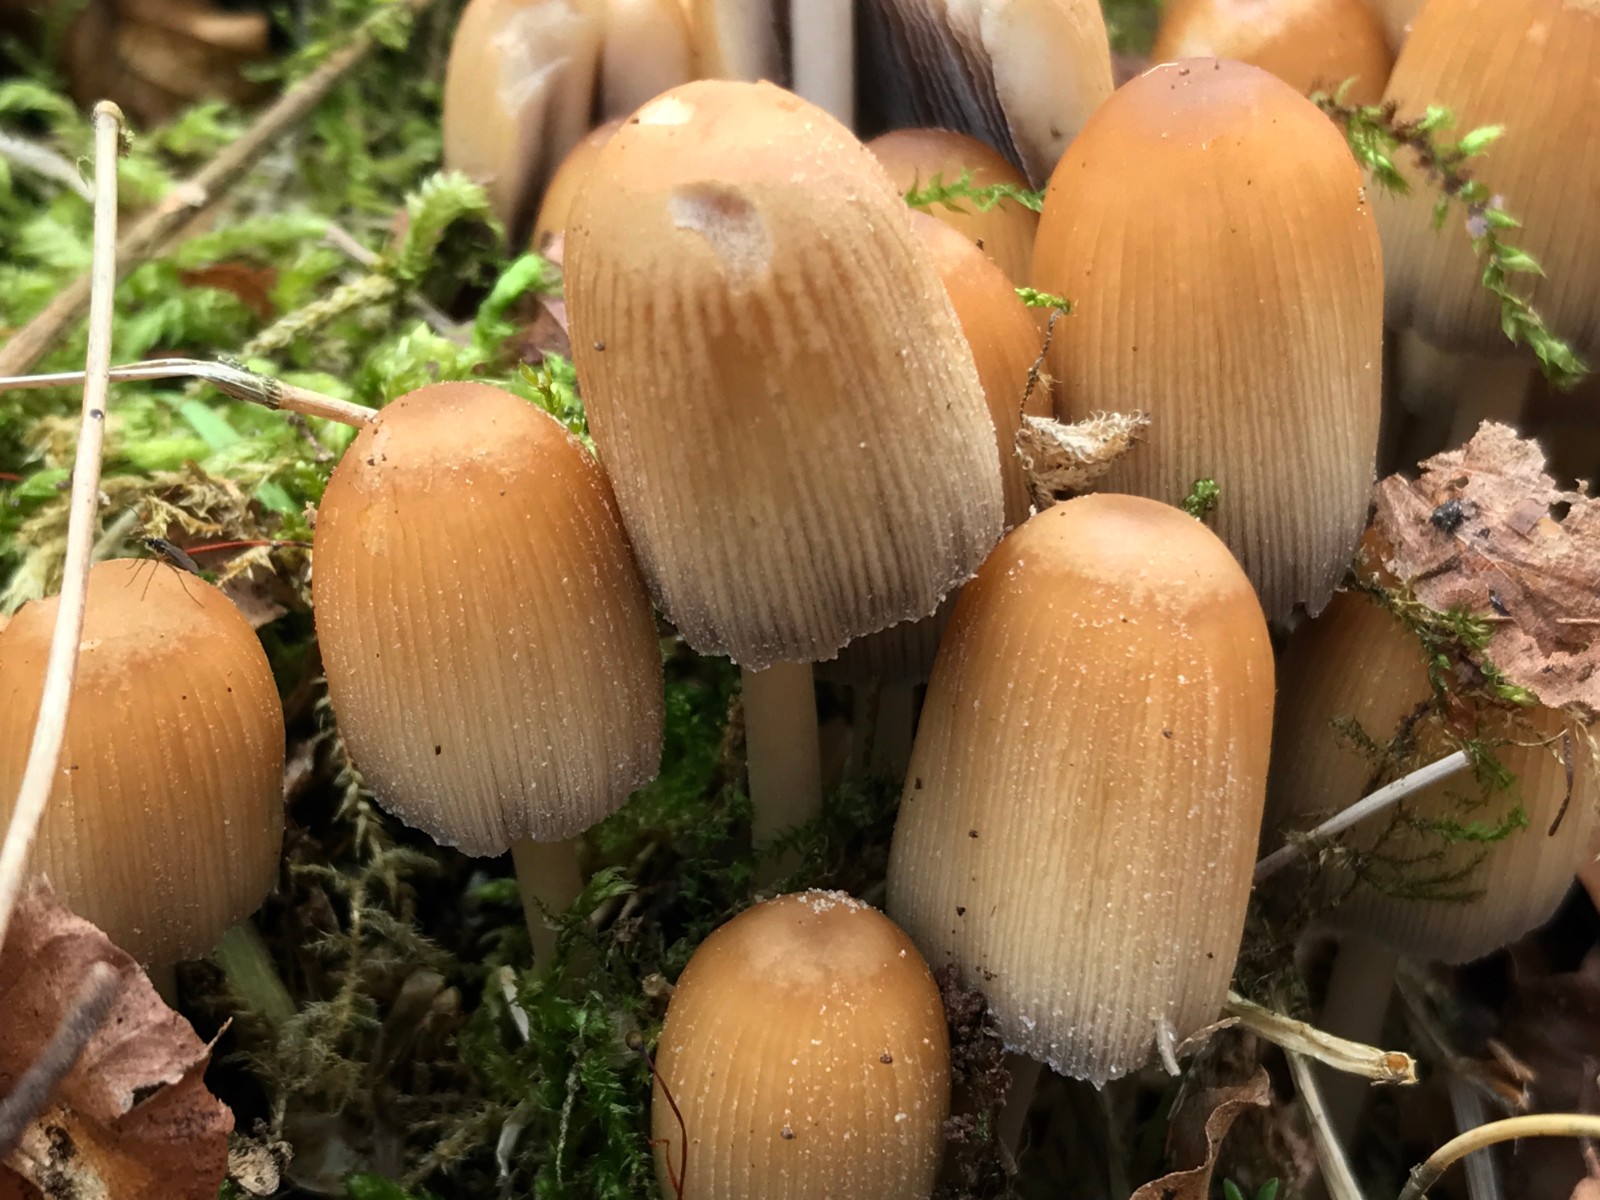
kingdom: Fungi
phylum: Basidiomycota
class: Agaricomycetes
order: Agaricales
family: Psathyrellaceae
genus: Coprinellus
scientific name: Coprinellus micaceus
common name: glimmer-blækhat
